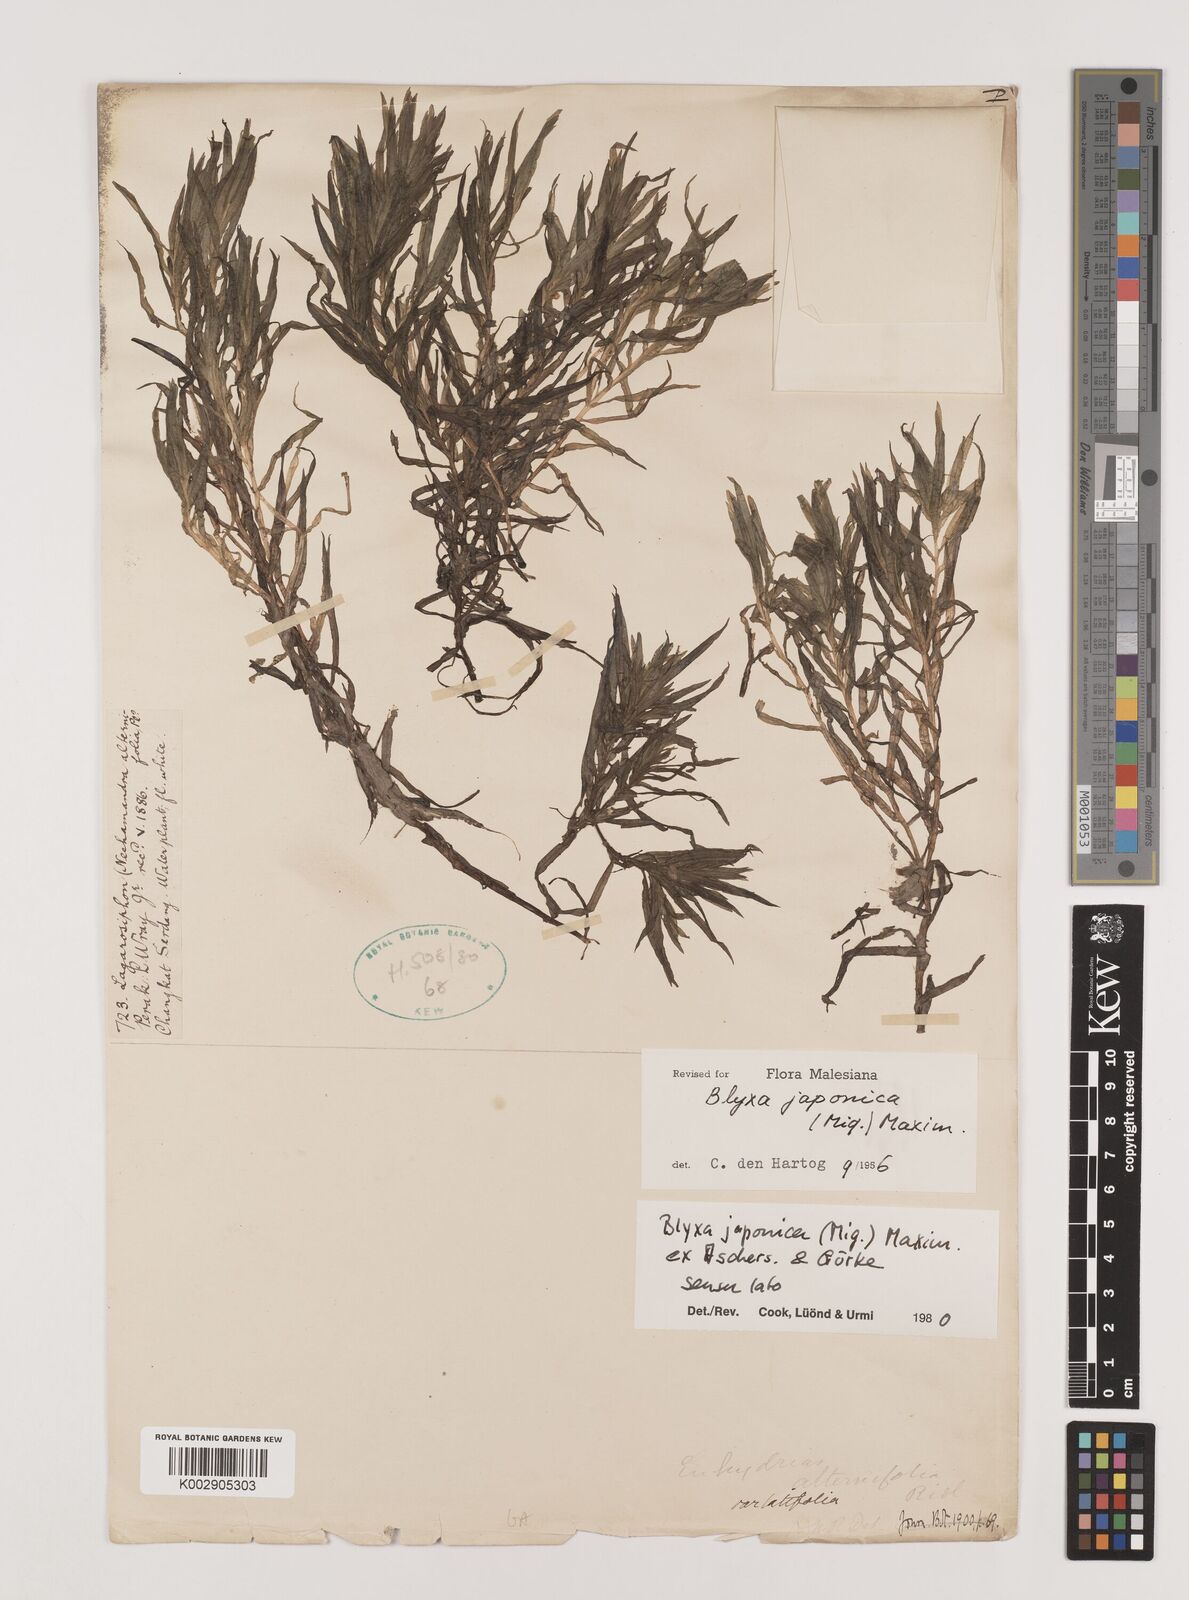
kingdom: Plantae
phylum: Tracheophyta
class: Liliopsida
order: Alismatales
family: Hydrocharitaceae
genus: Blyxa
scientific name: Blyxa japonica
